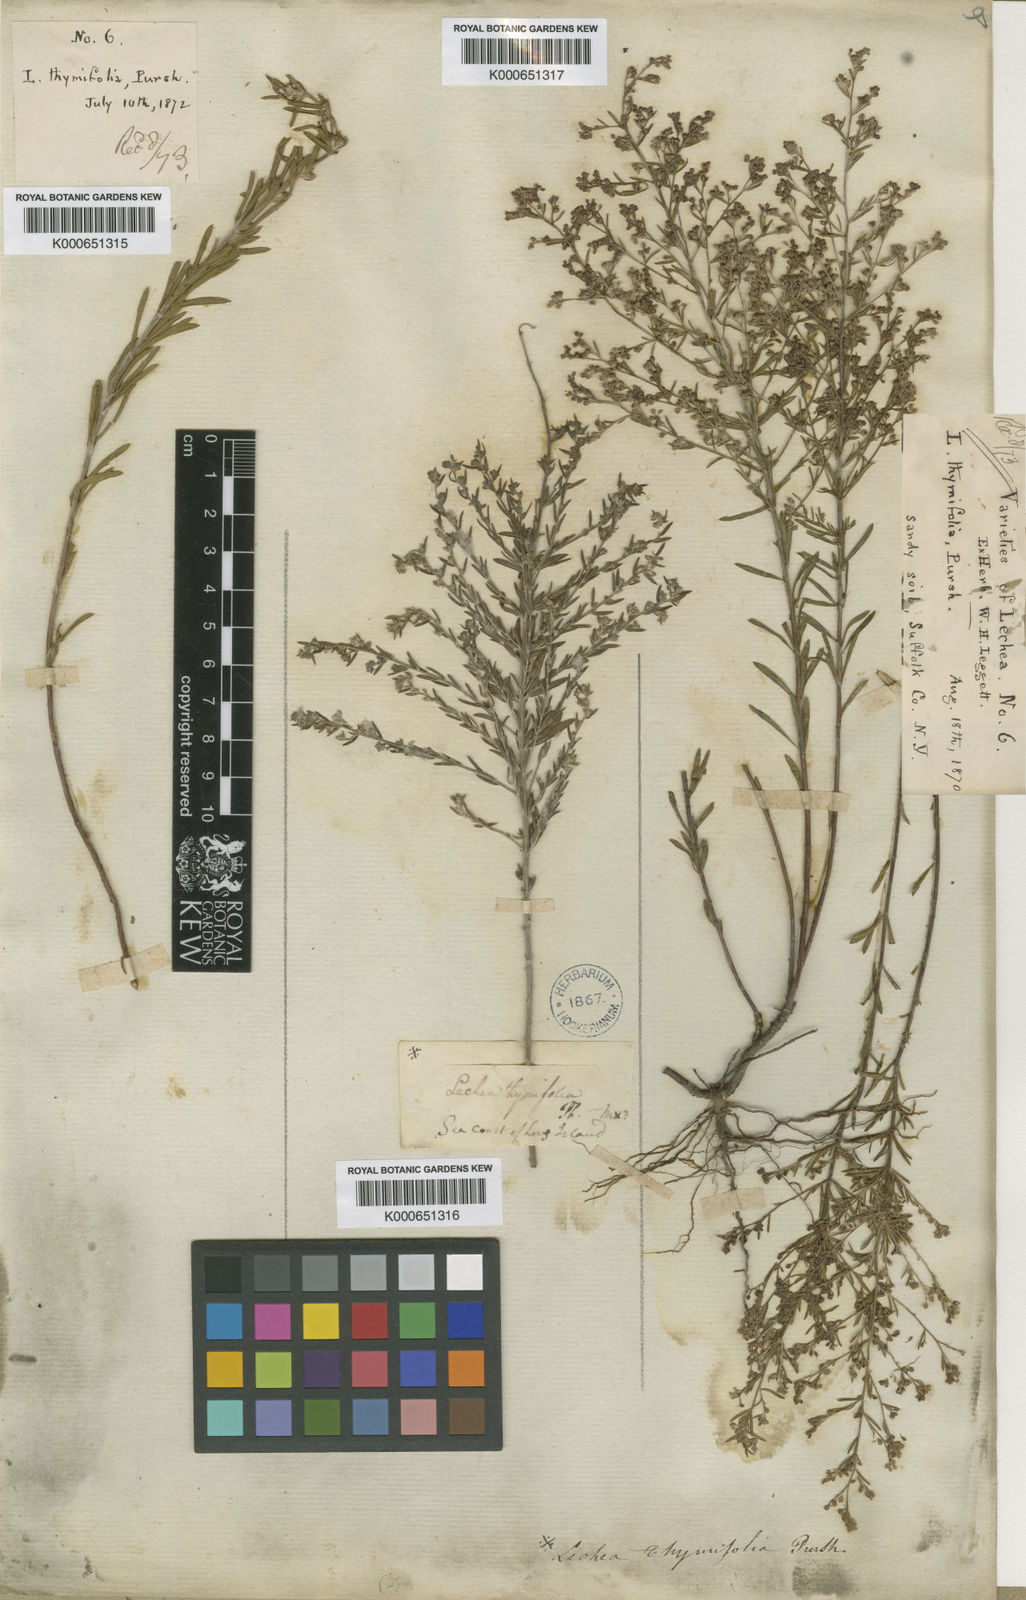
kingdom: Plantae
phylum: Tracheophyta
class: Magnoliopsida
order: Malvales
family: Cistaceae
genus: Lechea
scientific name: Lechea
